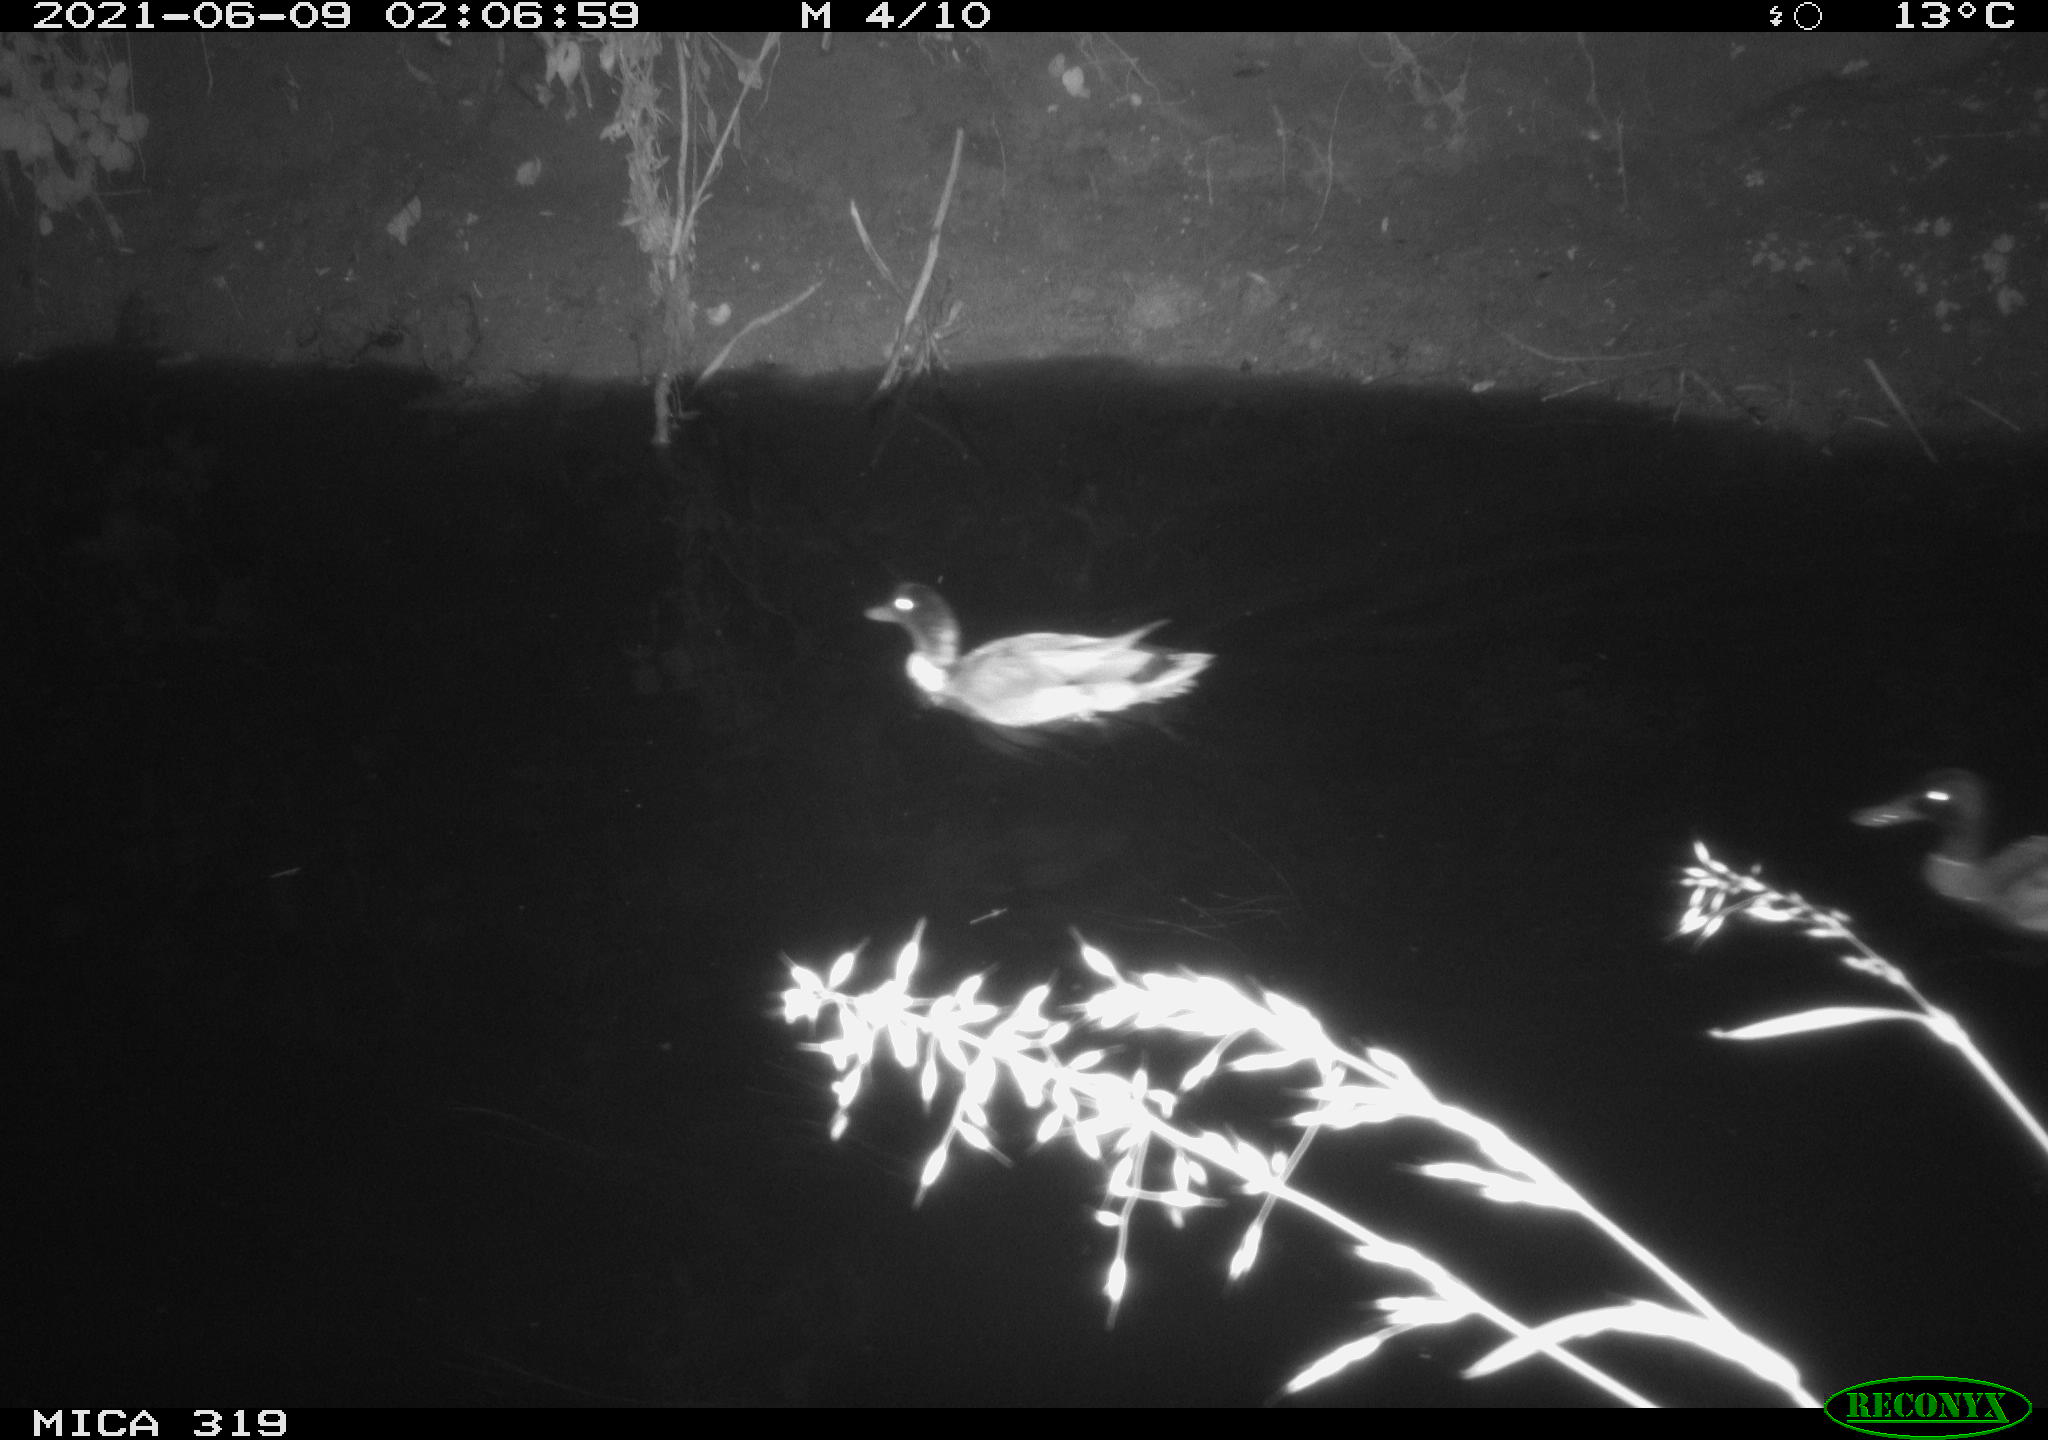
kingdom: Animalia
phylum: Chordata
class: Aves
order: Anseriformes
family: Anatidae
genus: Anas
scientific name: Anas platyrhynchos
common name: Mallard
